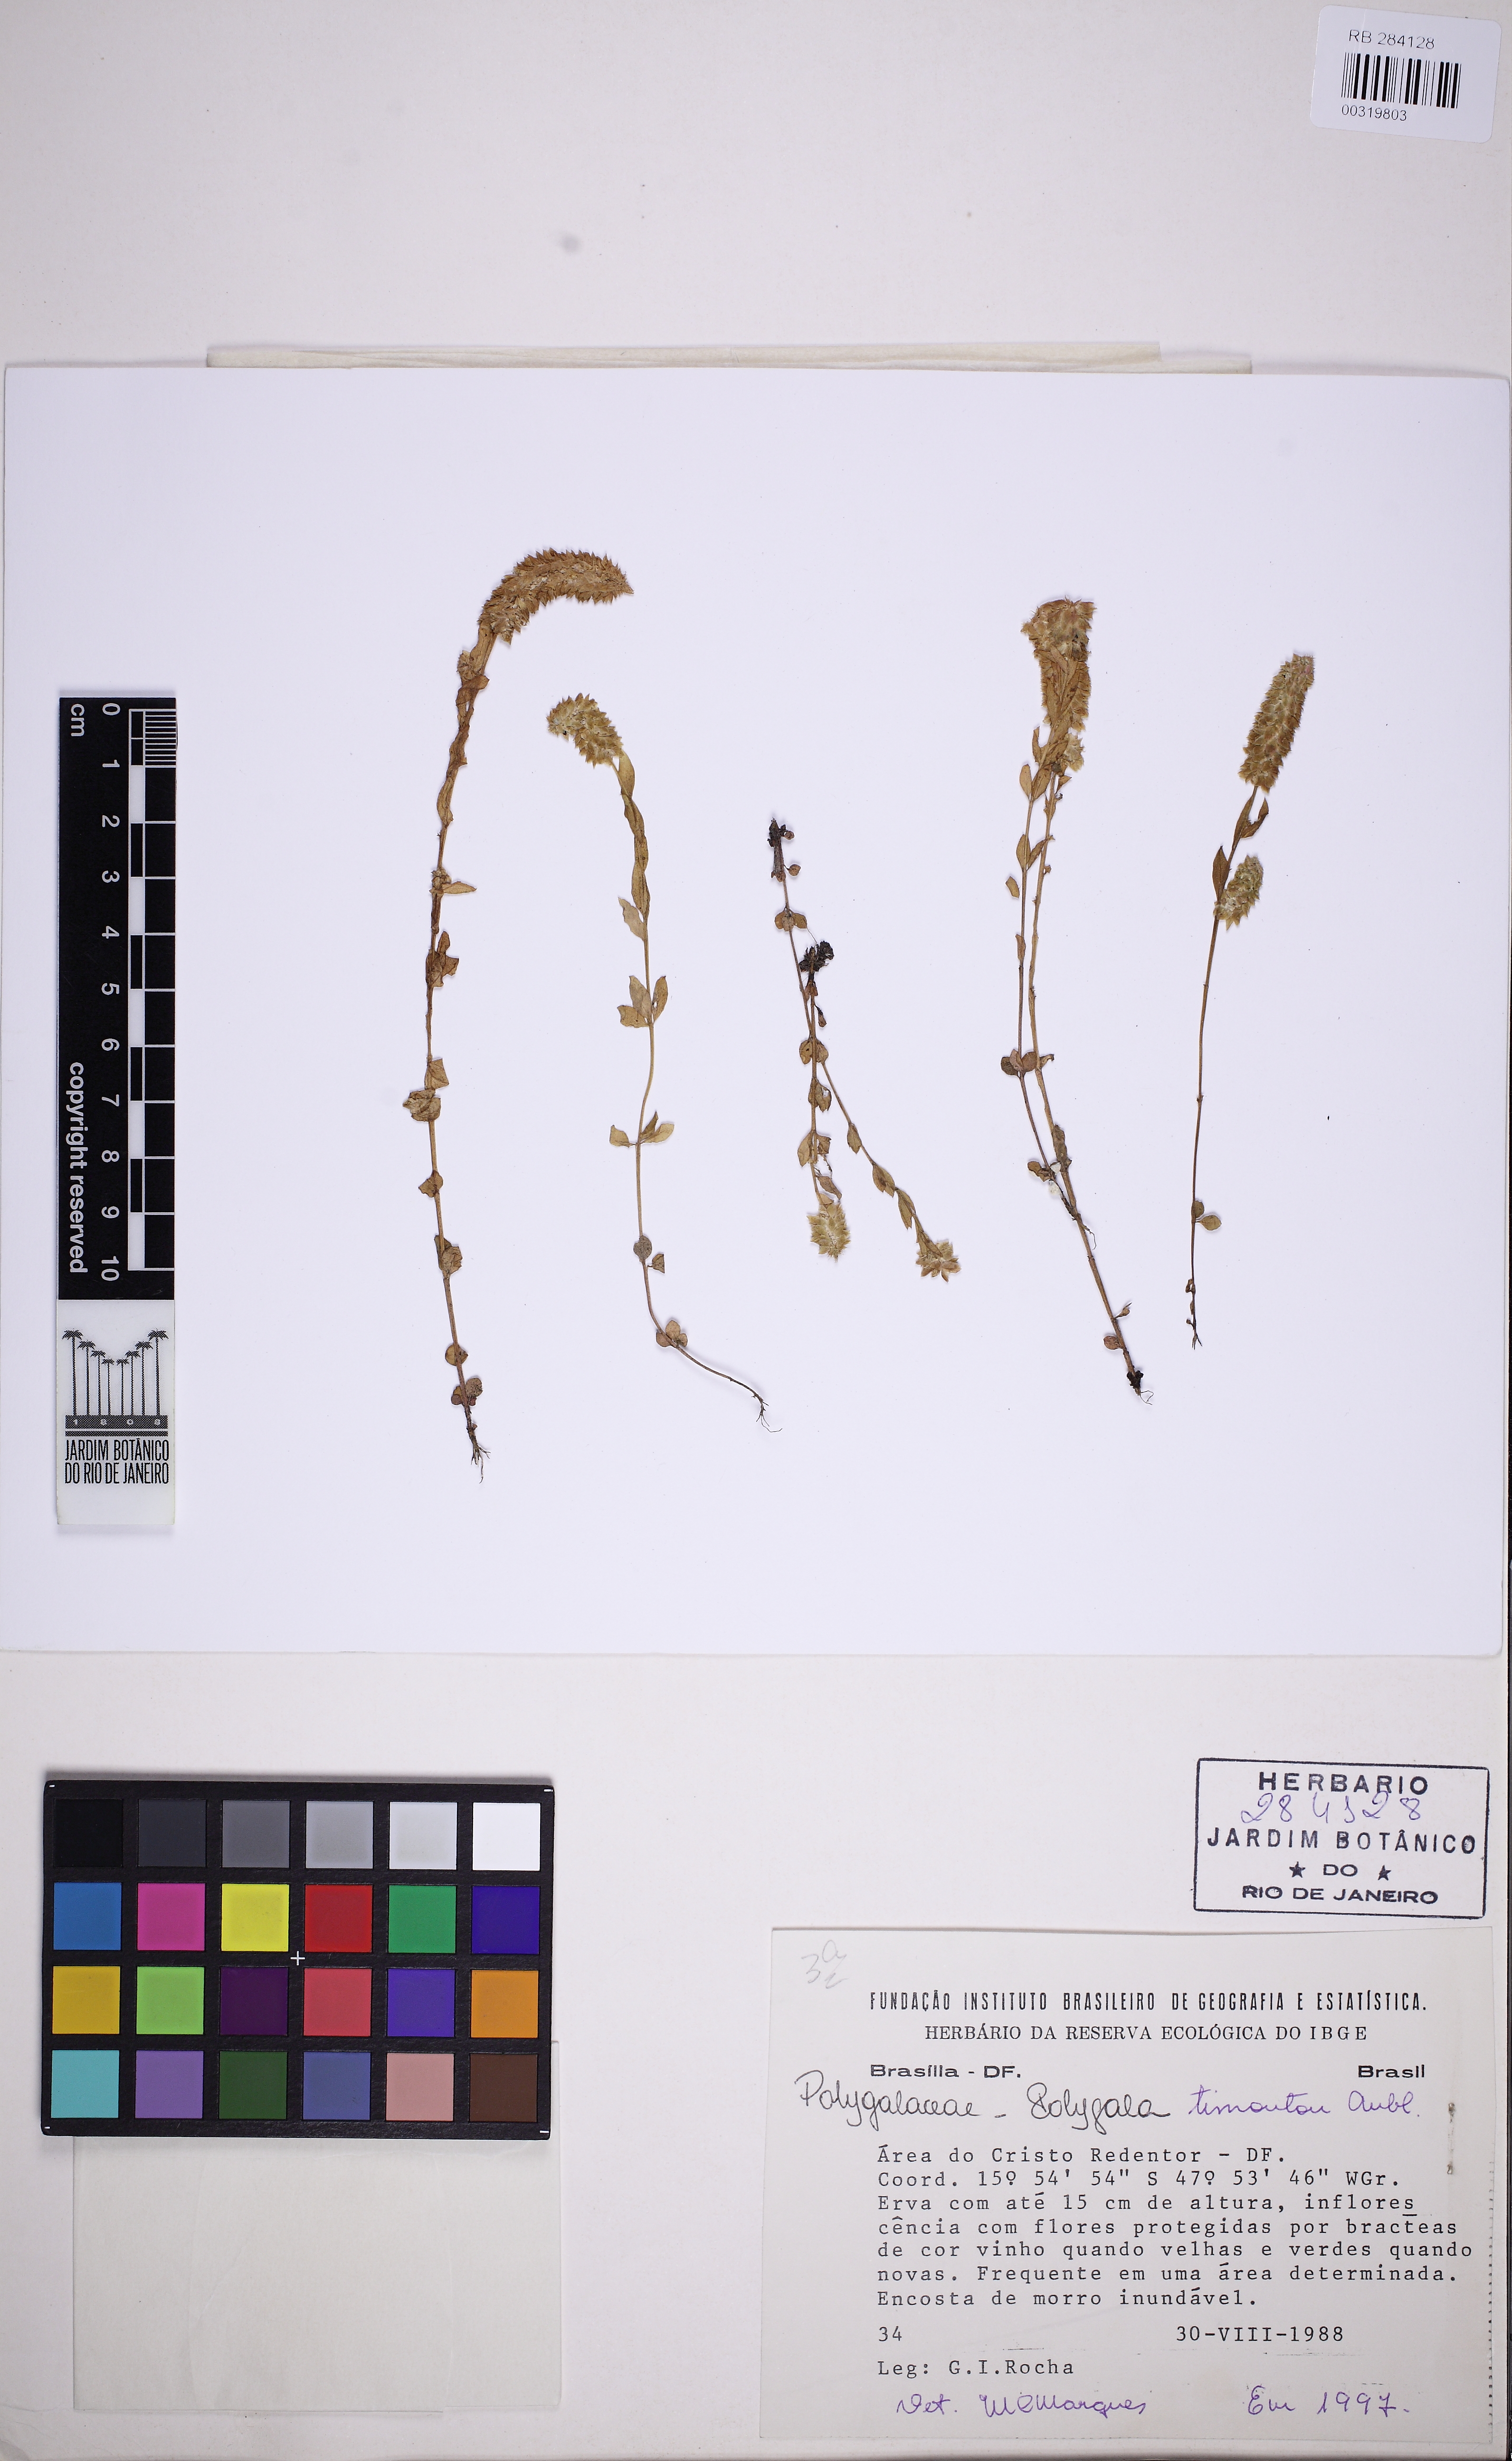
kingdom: Plantae
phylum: Tracheophyta
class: Magnoliopsida
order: Fabales
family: Polygalaceae
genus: Polygala
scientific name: Polygala timoutou
